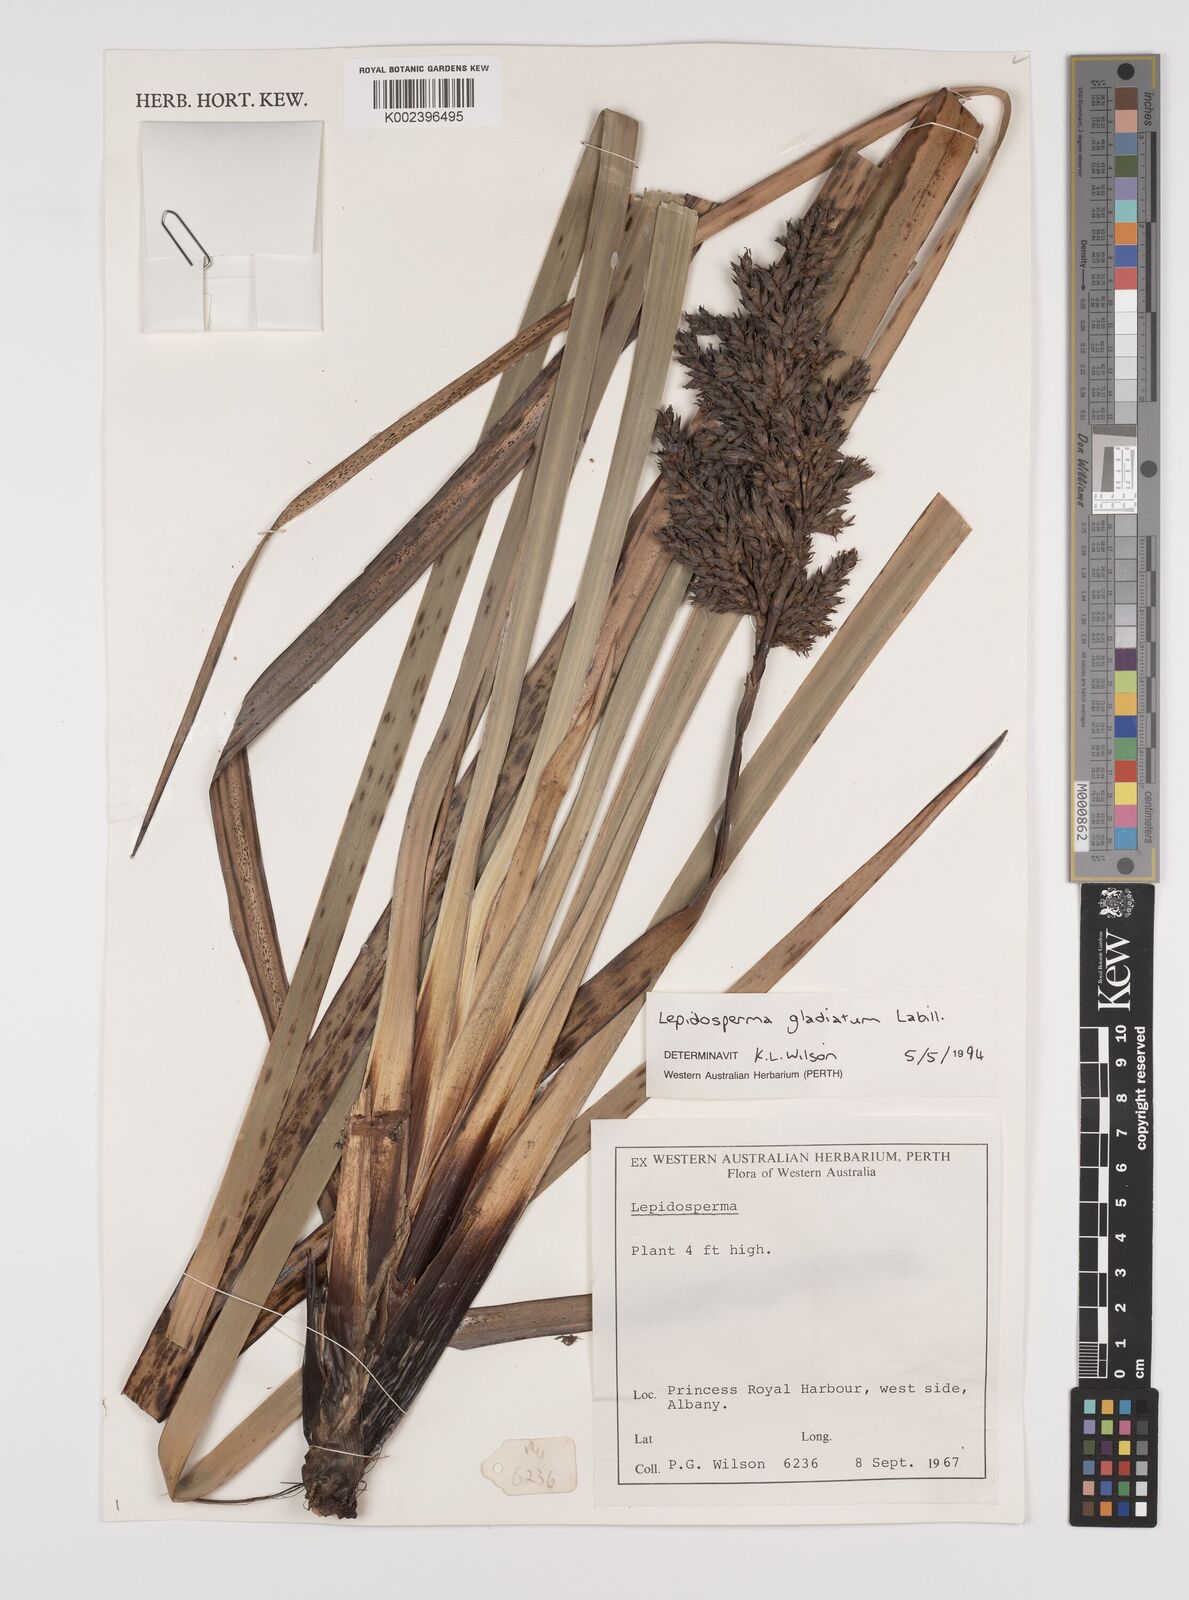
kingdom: Plantae
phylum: Tracheophyta
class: Liliopsida
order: Poales
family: Cyperaceae
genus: Lepidosperma
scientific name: Lepidosperma gladiatum
